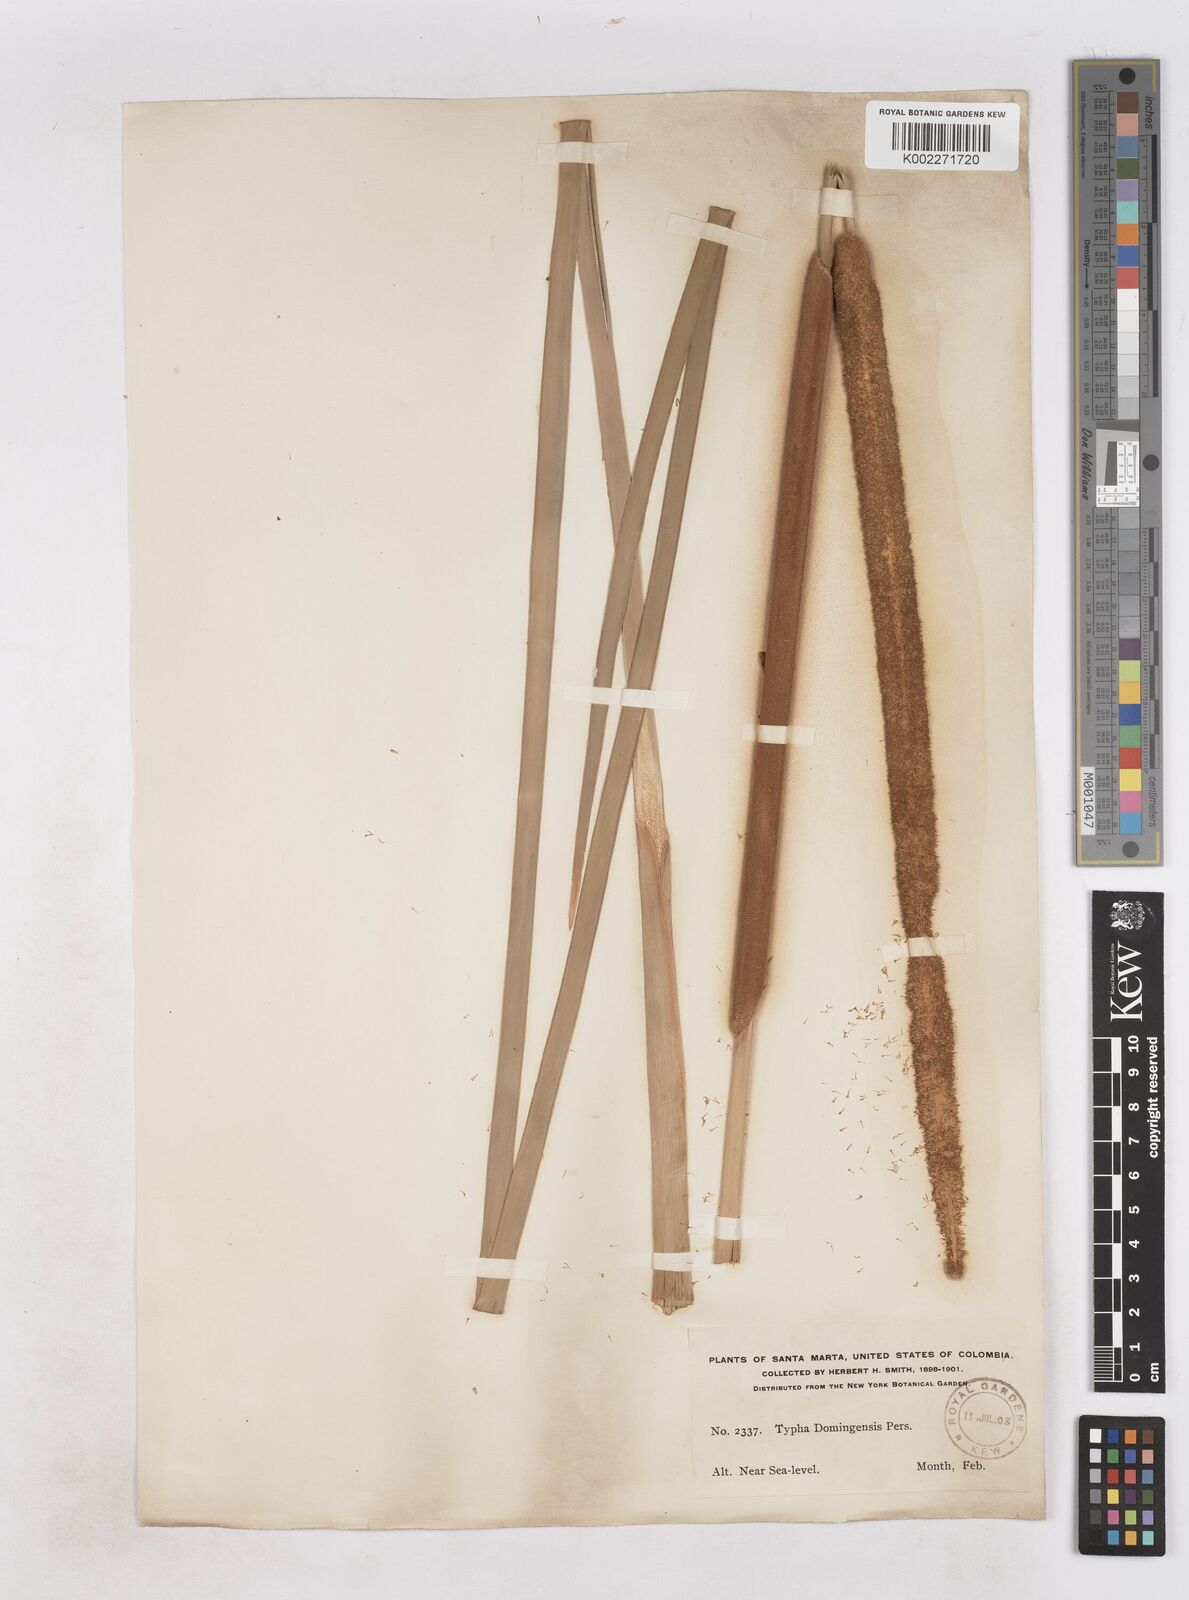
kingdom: Plantae
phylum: Tracheophyta
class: Liliopsida
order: Poales
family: Typhaceae
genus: Typha
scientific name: Typha domingensis
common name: Southern cattail
